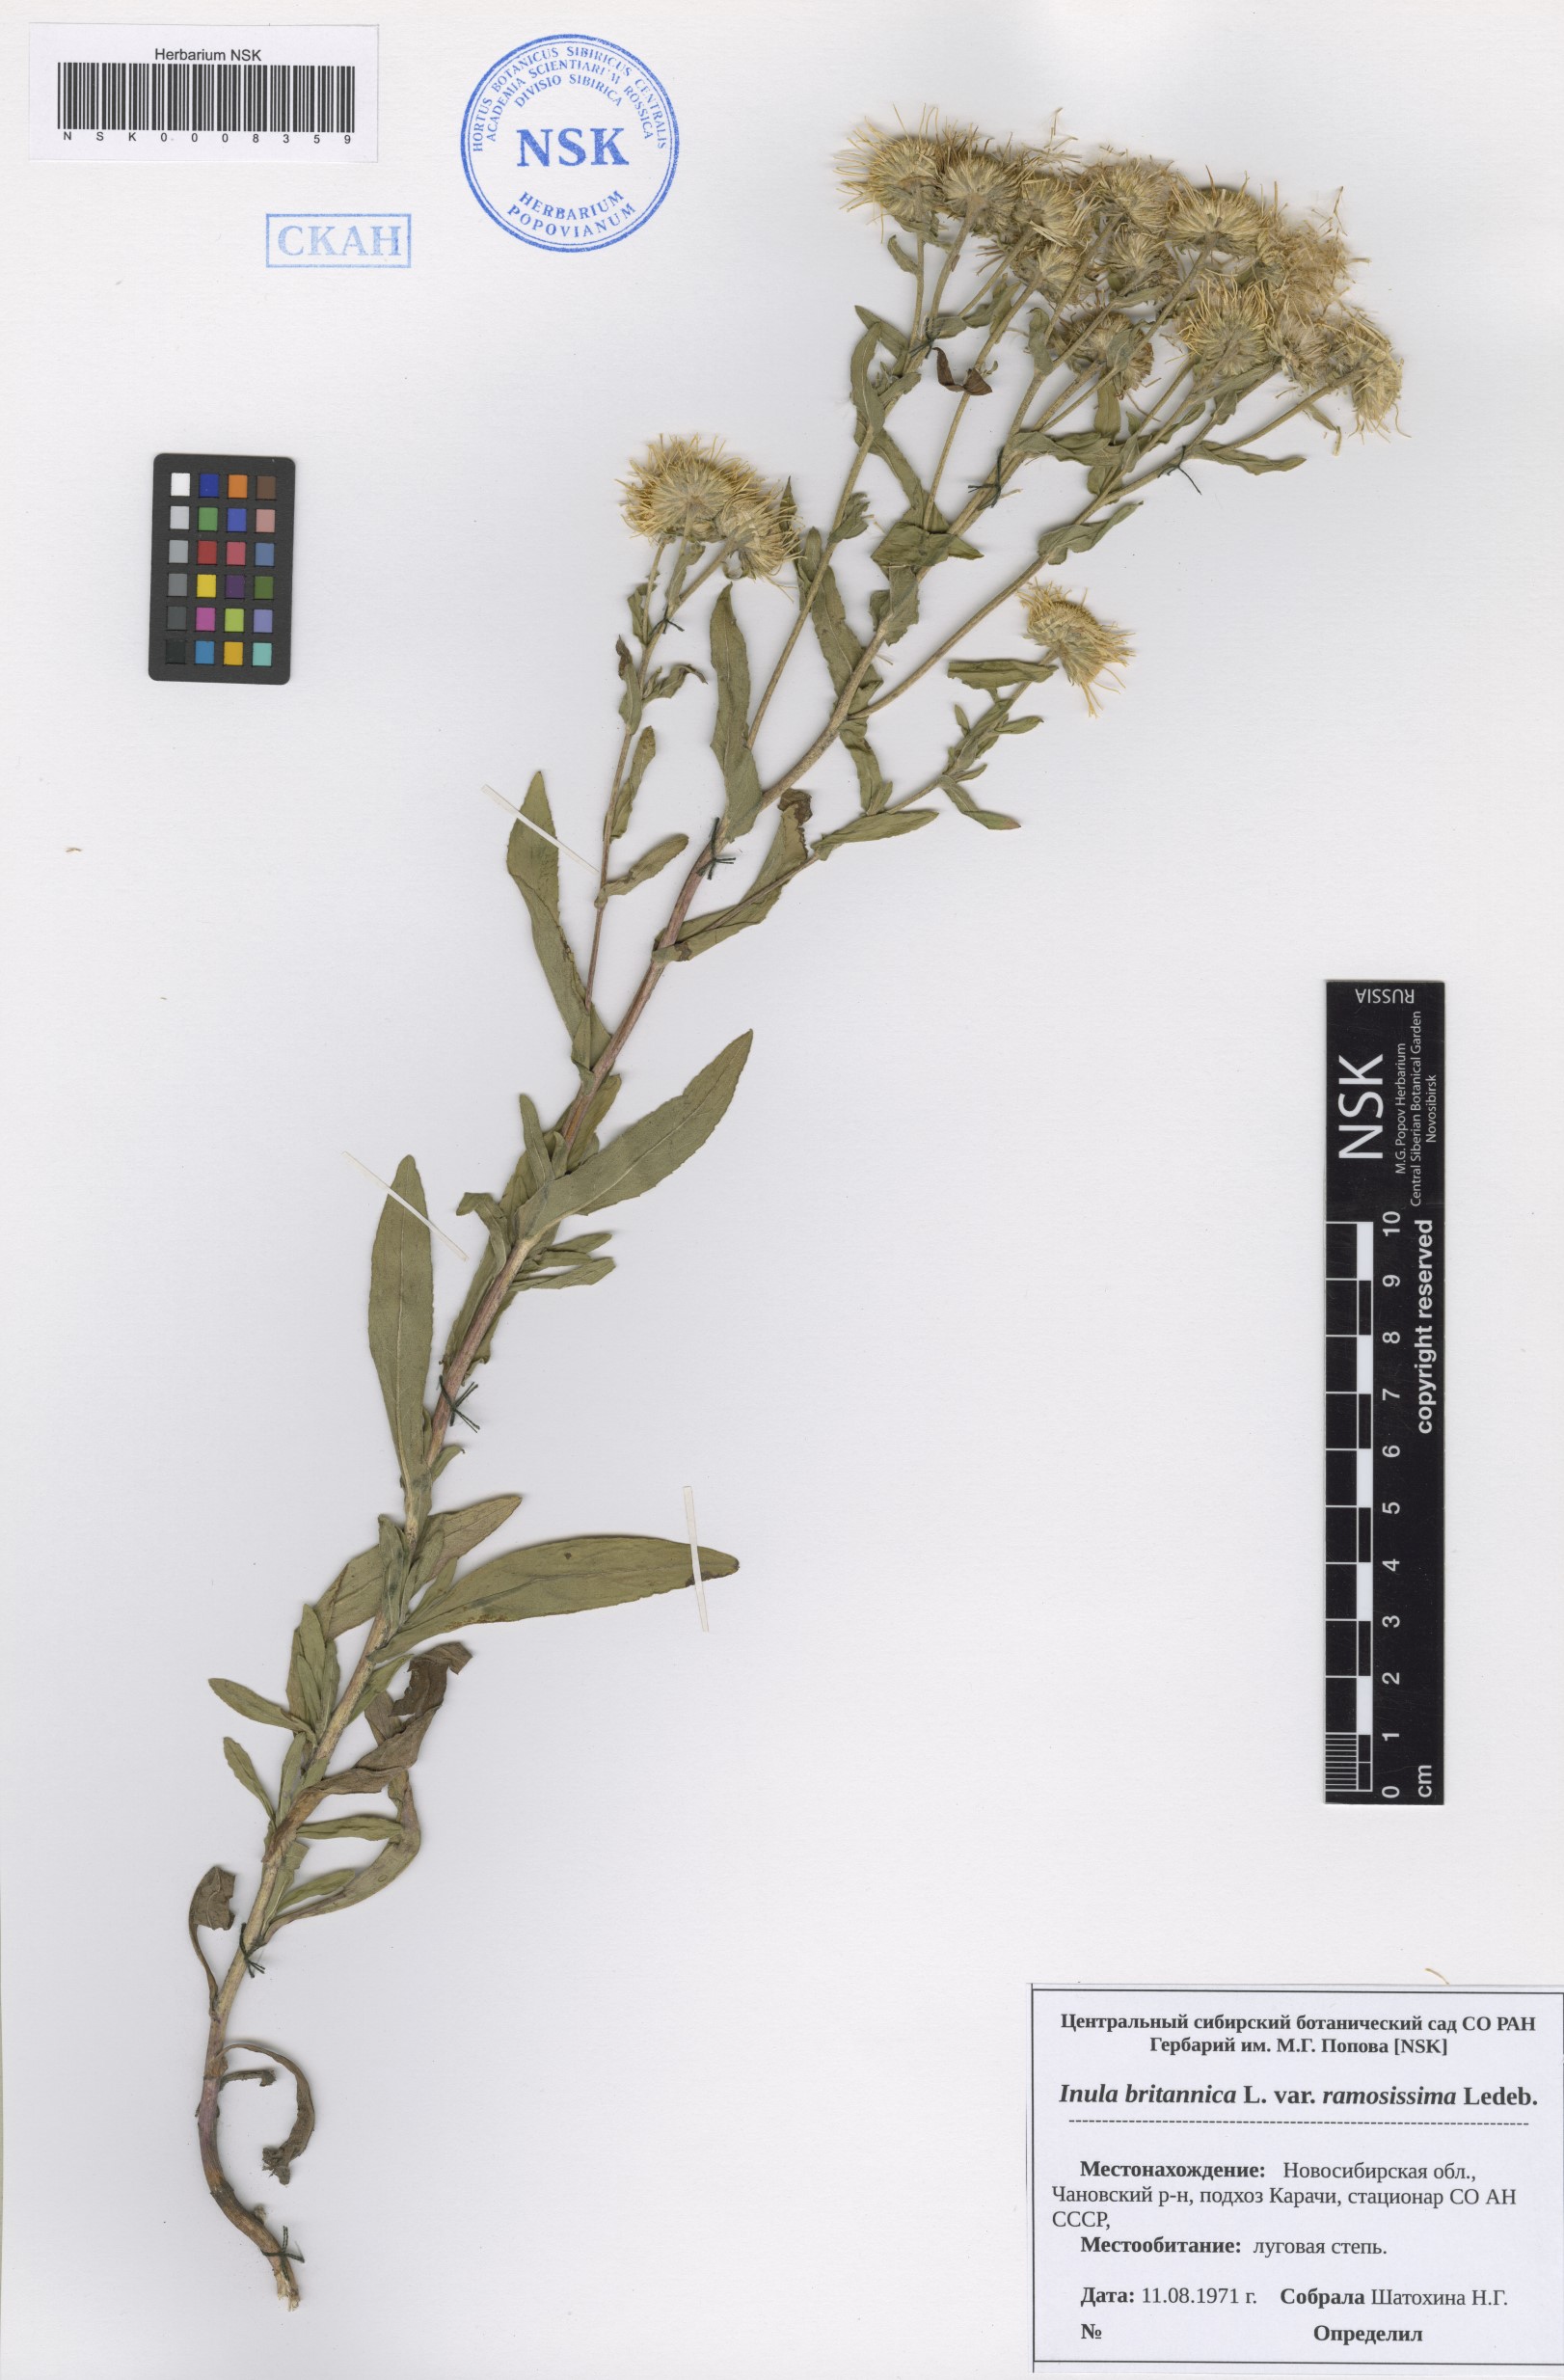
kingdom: Plantae
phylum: Tracheophyta
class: Magnoliopsida
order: Asterales
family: Asteraceae
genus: Pentanema
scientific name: Pentanema britannicum
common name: British elecampane
